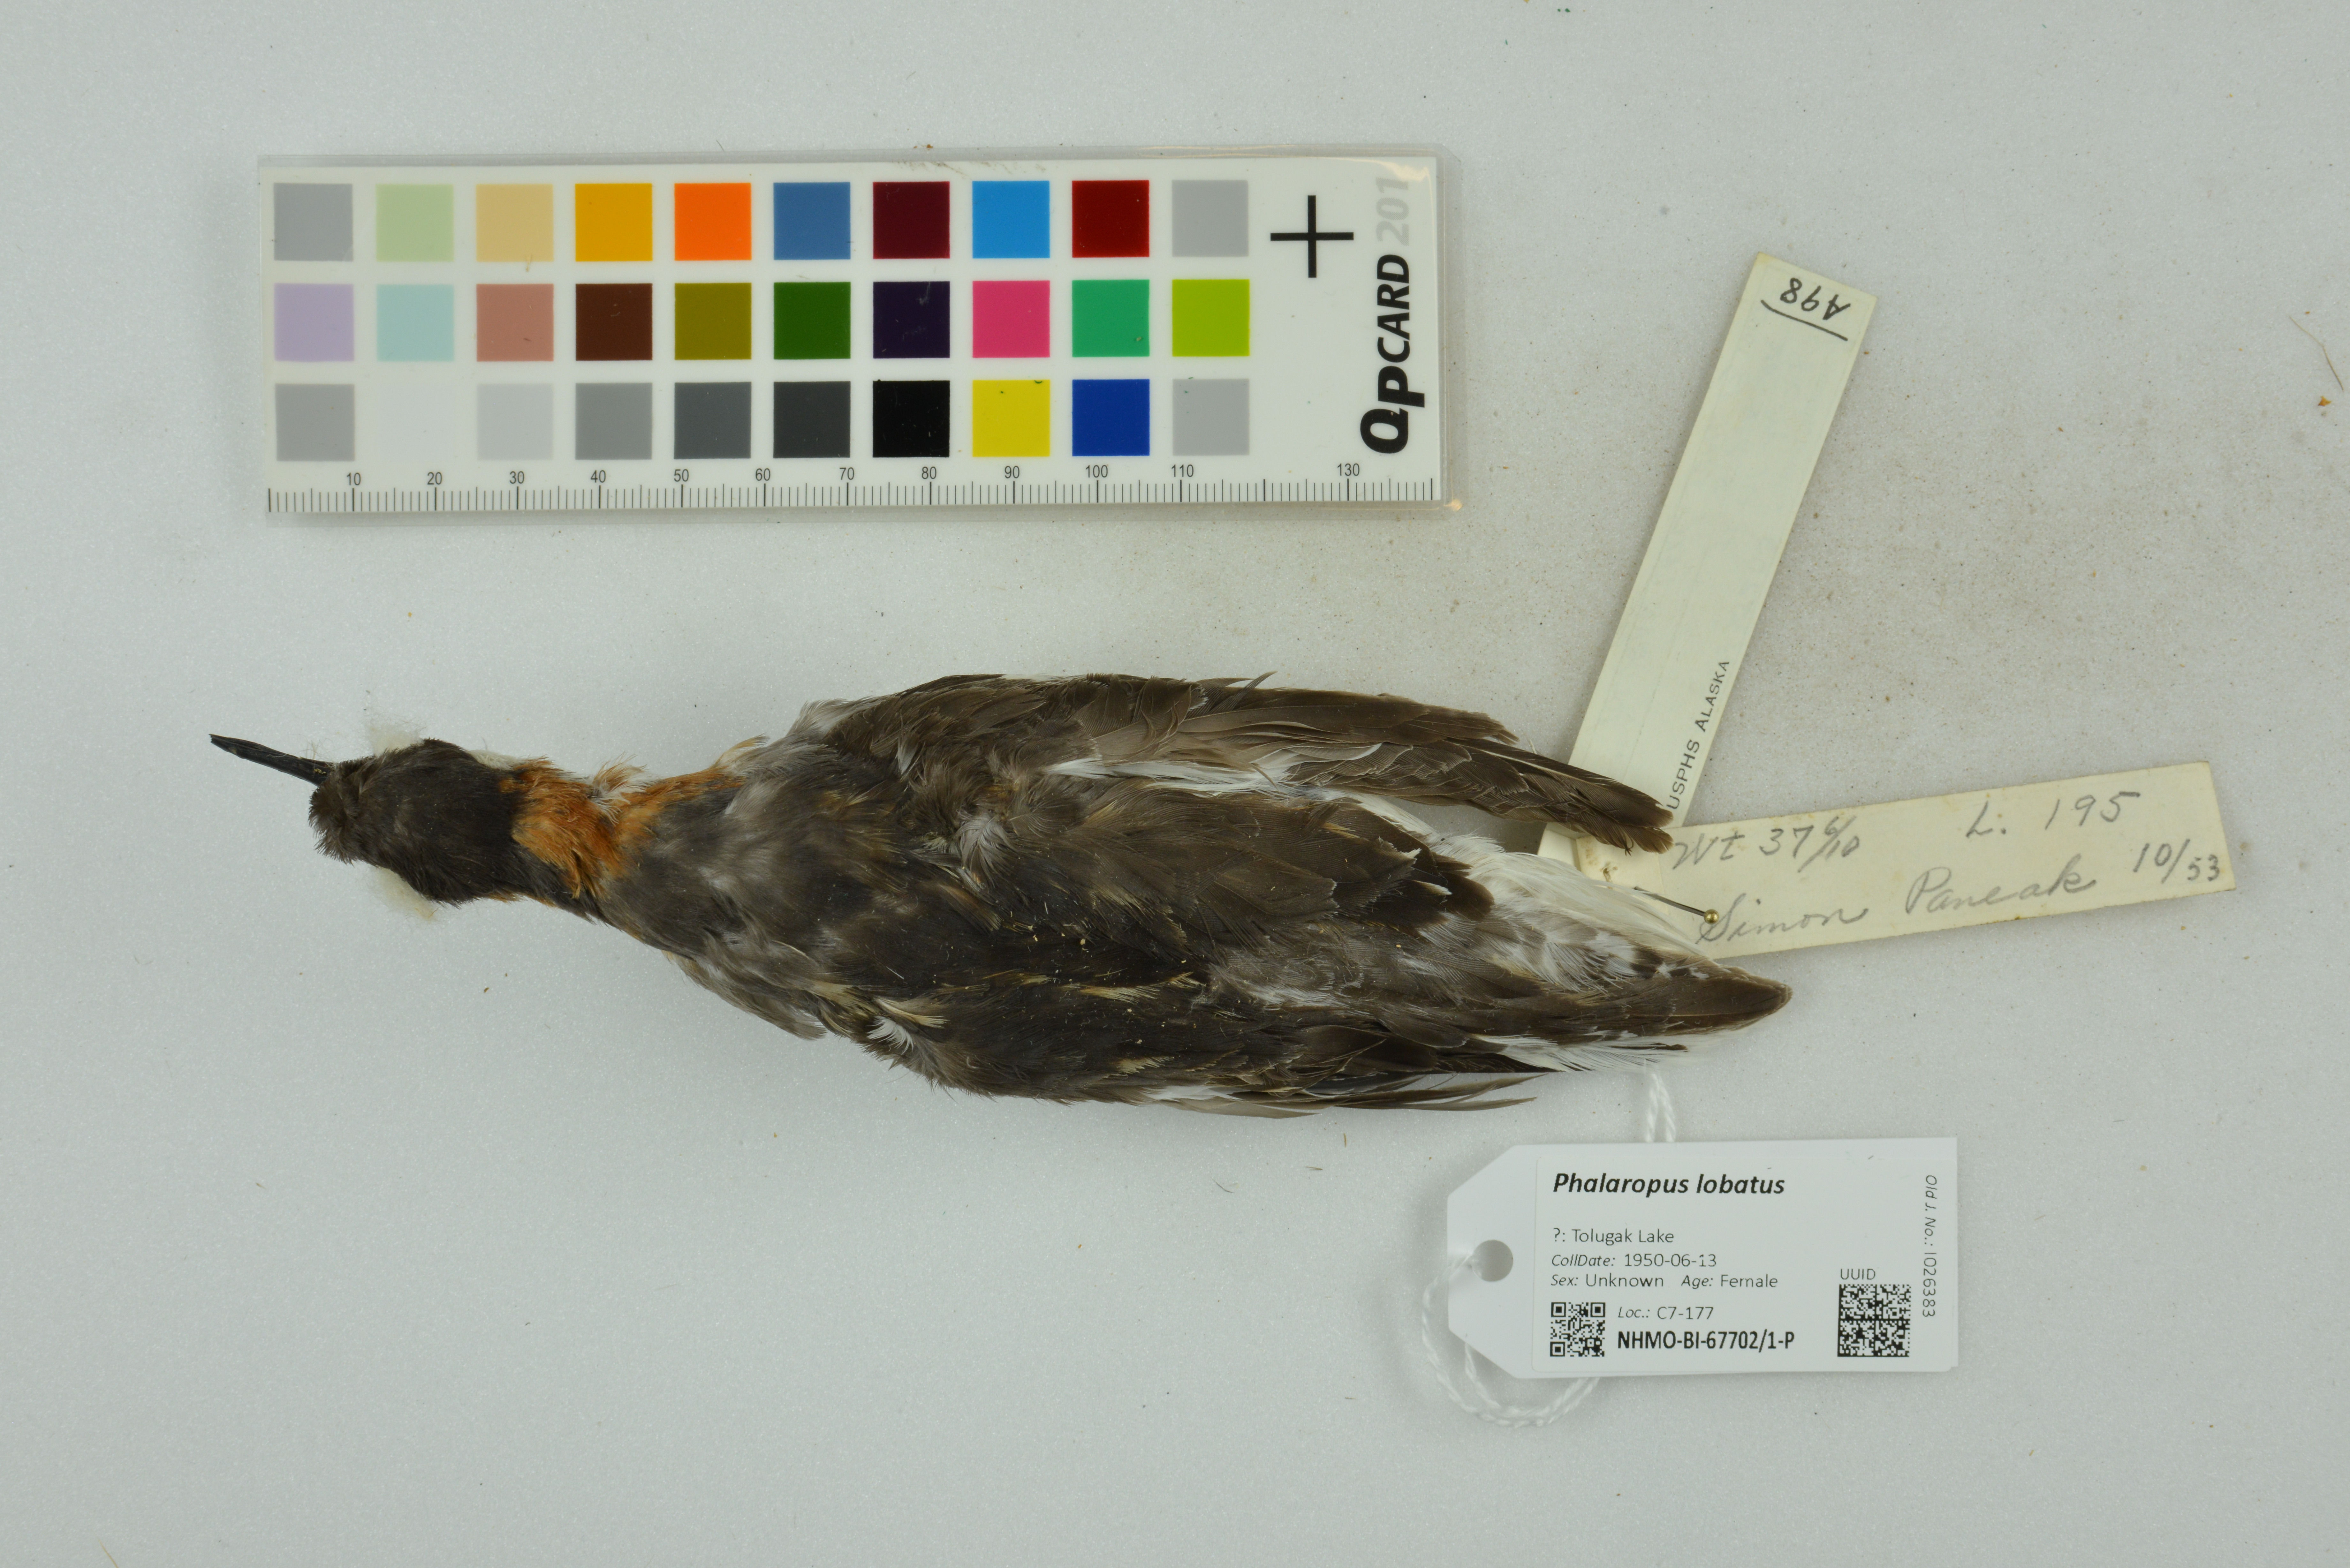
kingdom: Animalia
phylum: Chordata
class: Aves
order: Charadriiformes
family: Scolopacidae
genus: Phalaropus
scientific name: Phalaropus lobatus
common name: Red-necked phalarope
